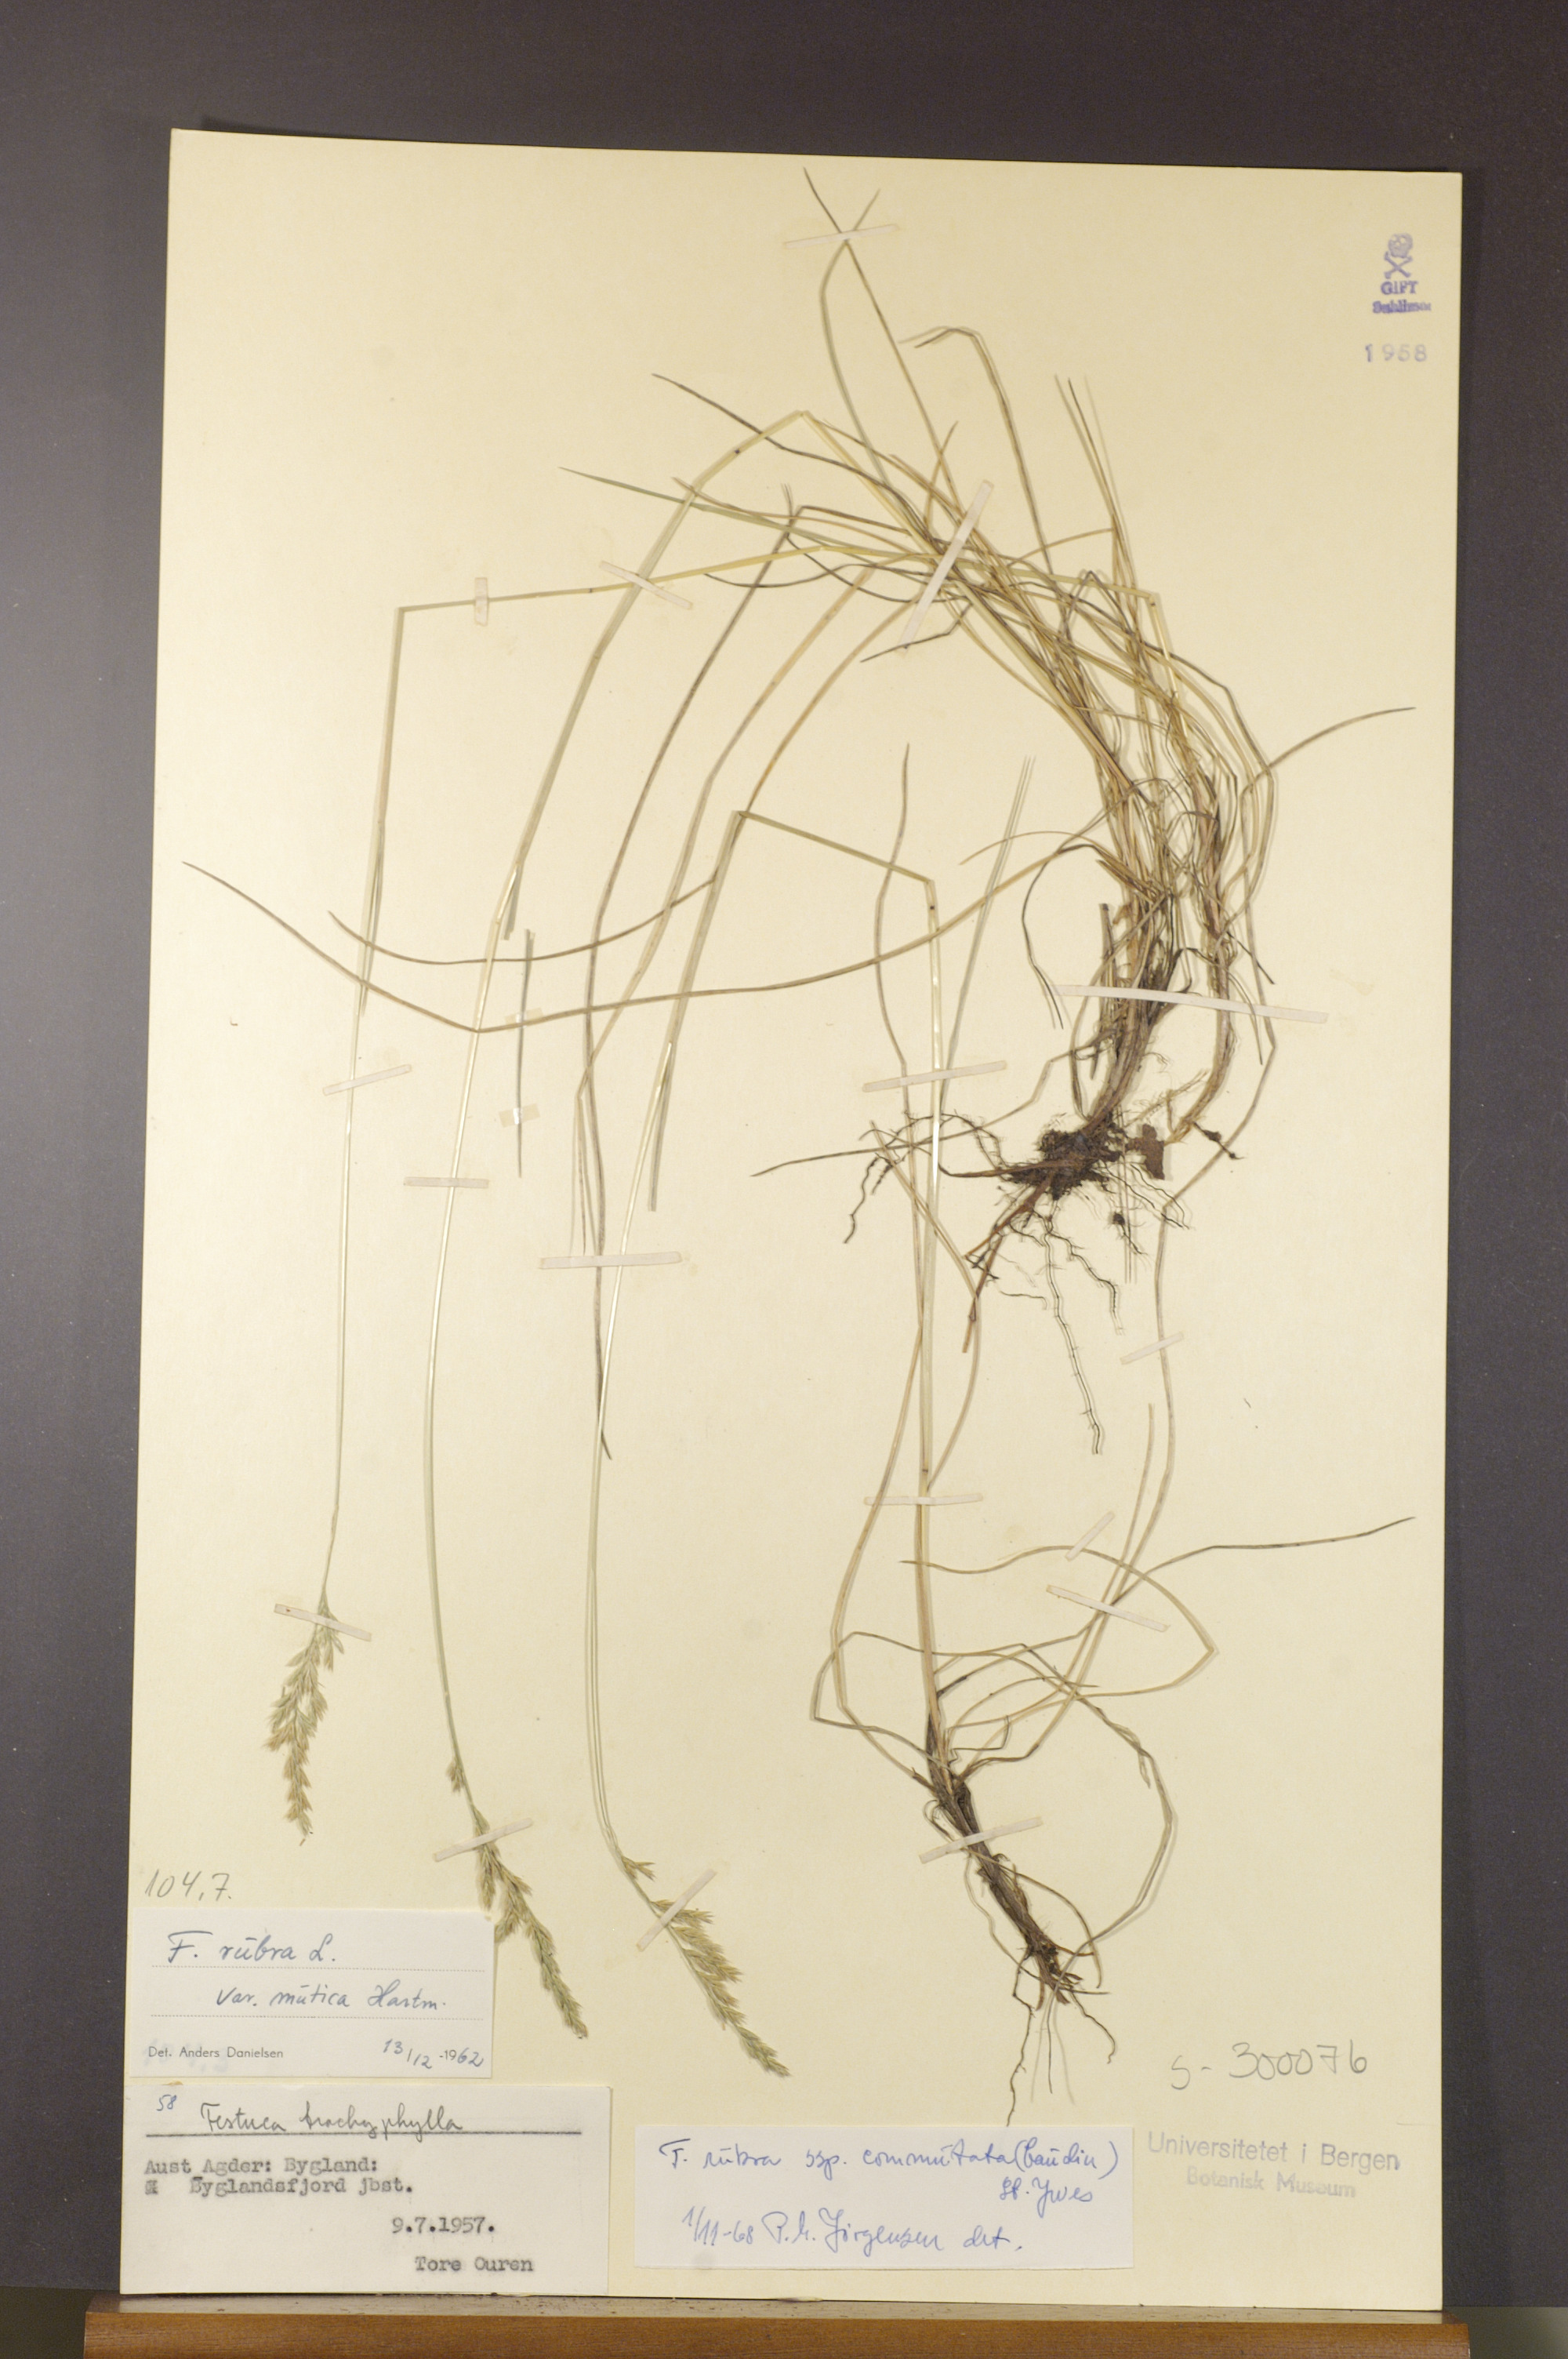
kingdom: Plantae
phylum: Tracheophyta
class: Liliopsida
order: Poales
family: Poaceae
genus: Festuca
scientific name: Festuca rubra
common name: Red fescue
